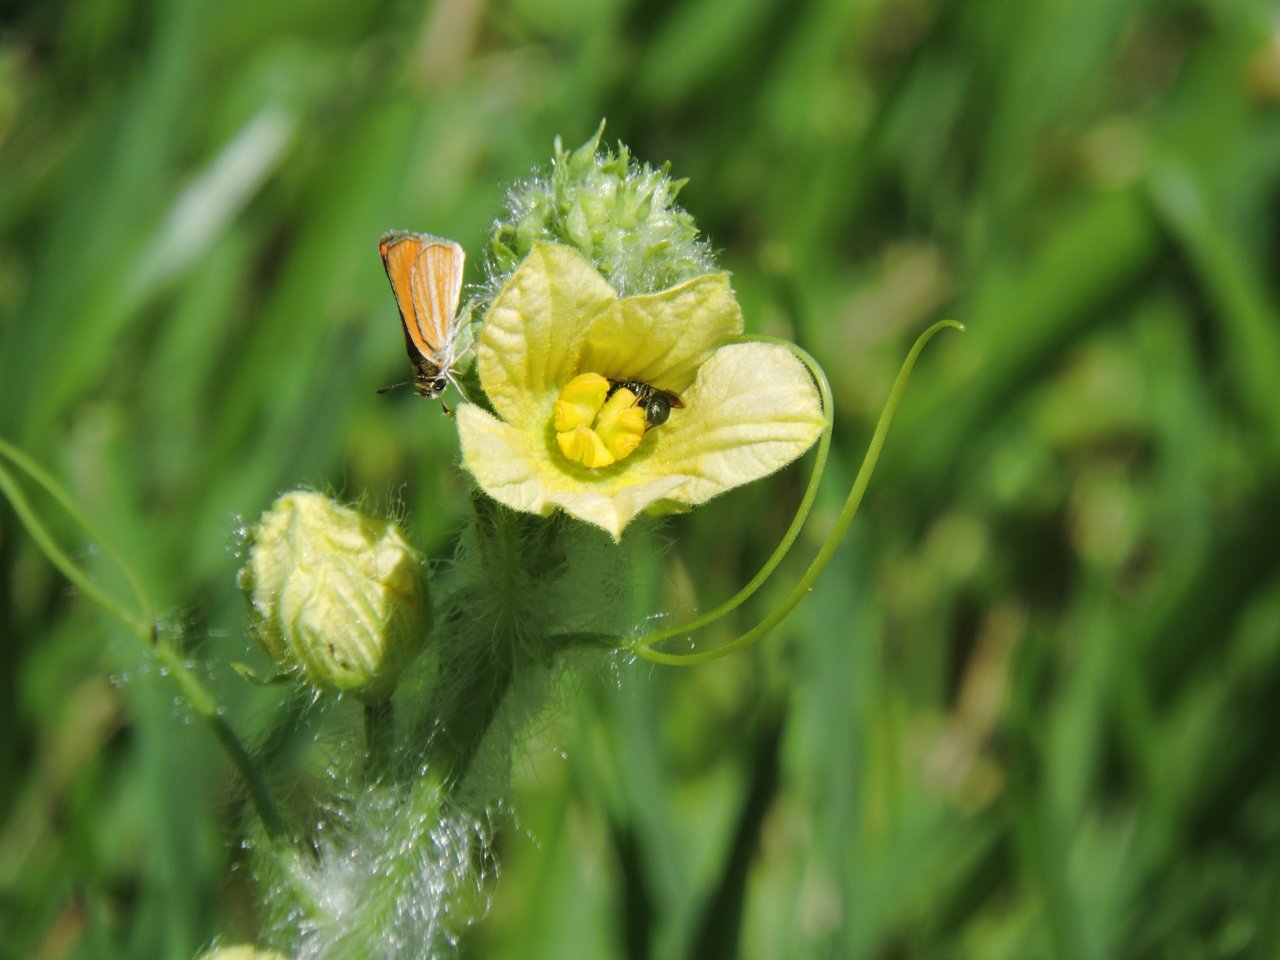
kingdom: Animalia
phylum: Arthropoda
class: Insecta
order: Lepidoptera
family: Hesperiidae
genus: Copaeodes
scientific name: Copaeodes minima
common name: Southern Skipperling
